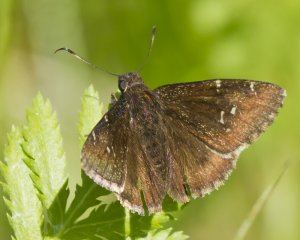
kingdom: Animalia
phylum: Arthropoda
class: Insecta
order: Lepidoptera
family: Hesperiidae
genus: Autochton
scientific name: Autochton
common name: Northern Cloudywing
